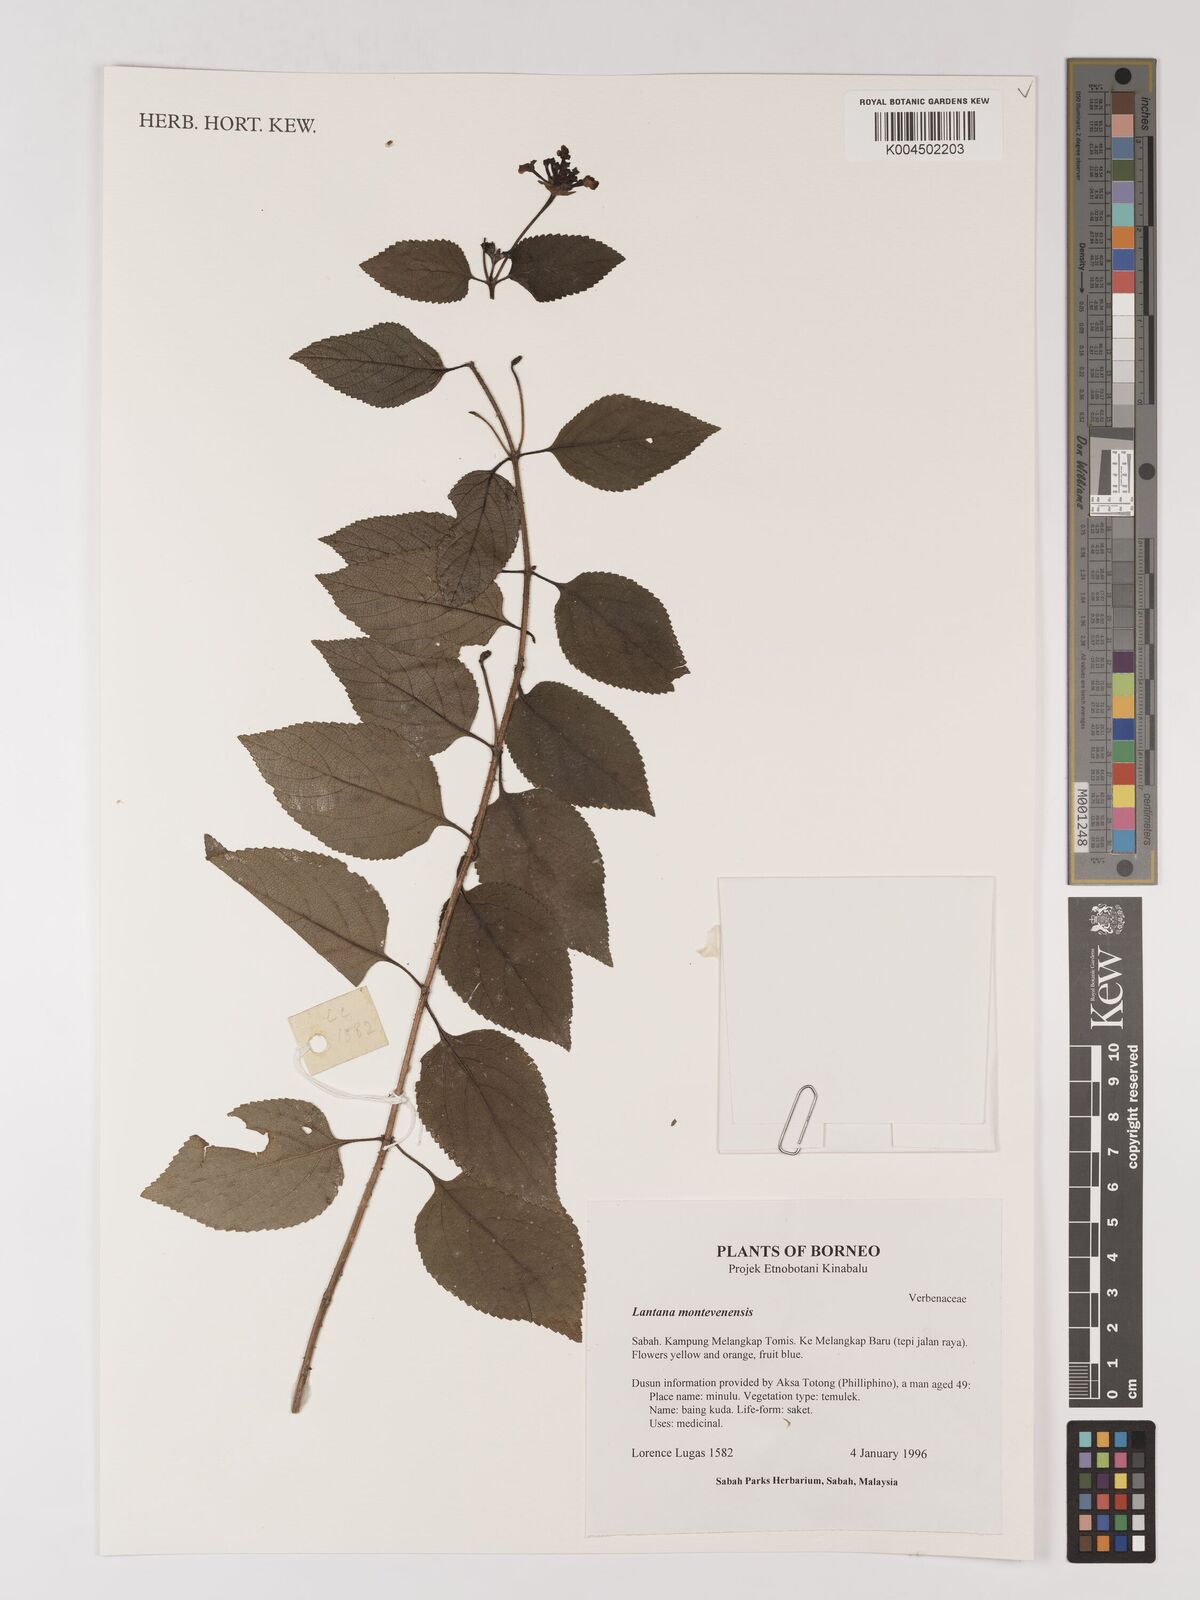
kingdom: Plantae
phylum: Tracheophyta
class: Magnoliopsida
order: Lamiales
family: Verbenaceae
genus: Lantana
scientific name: Lantana
